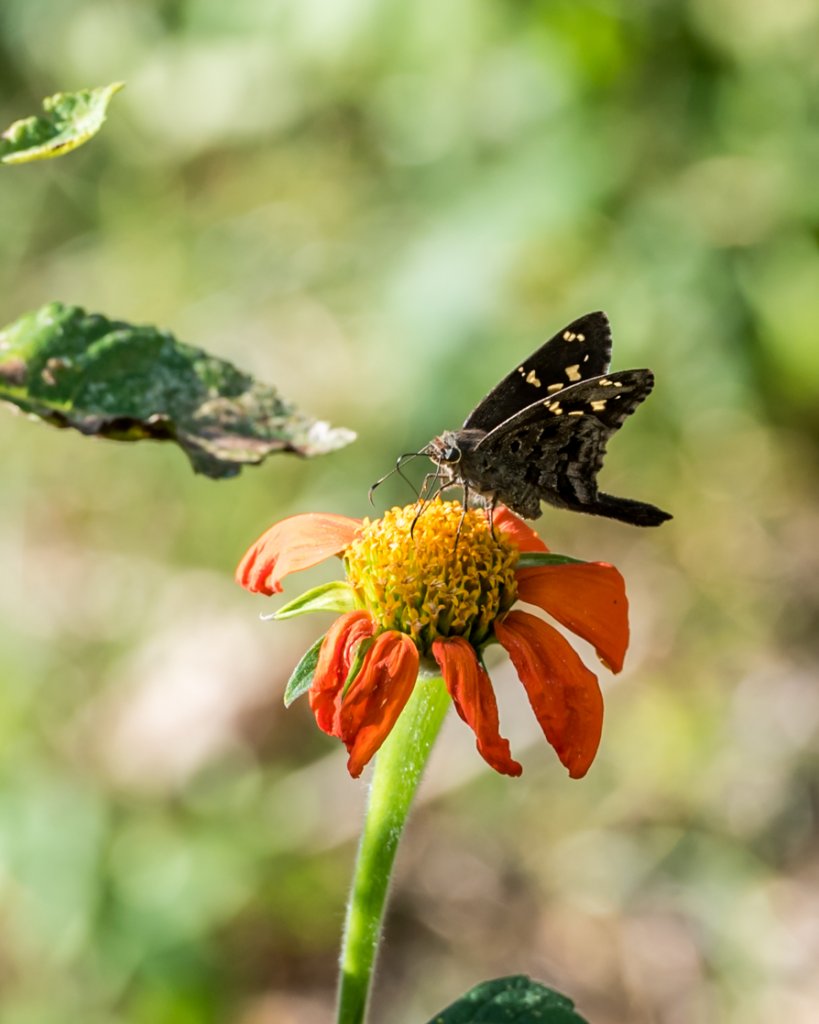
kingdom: Animalia
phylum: Arthropoda
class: Insecta
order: Lepidoptera
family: Hesperiidae
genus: Urbanus
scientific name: Urbanus proteus
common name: Long-tailed Skipper
